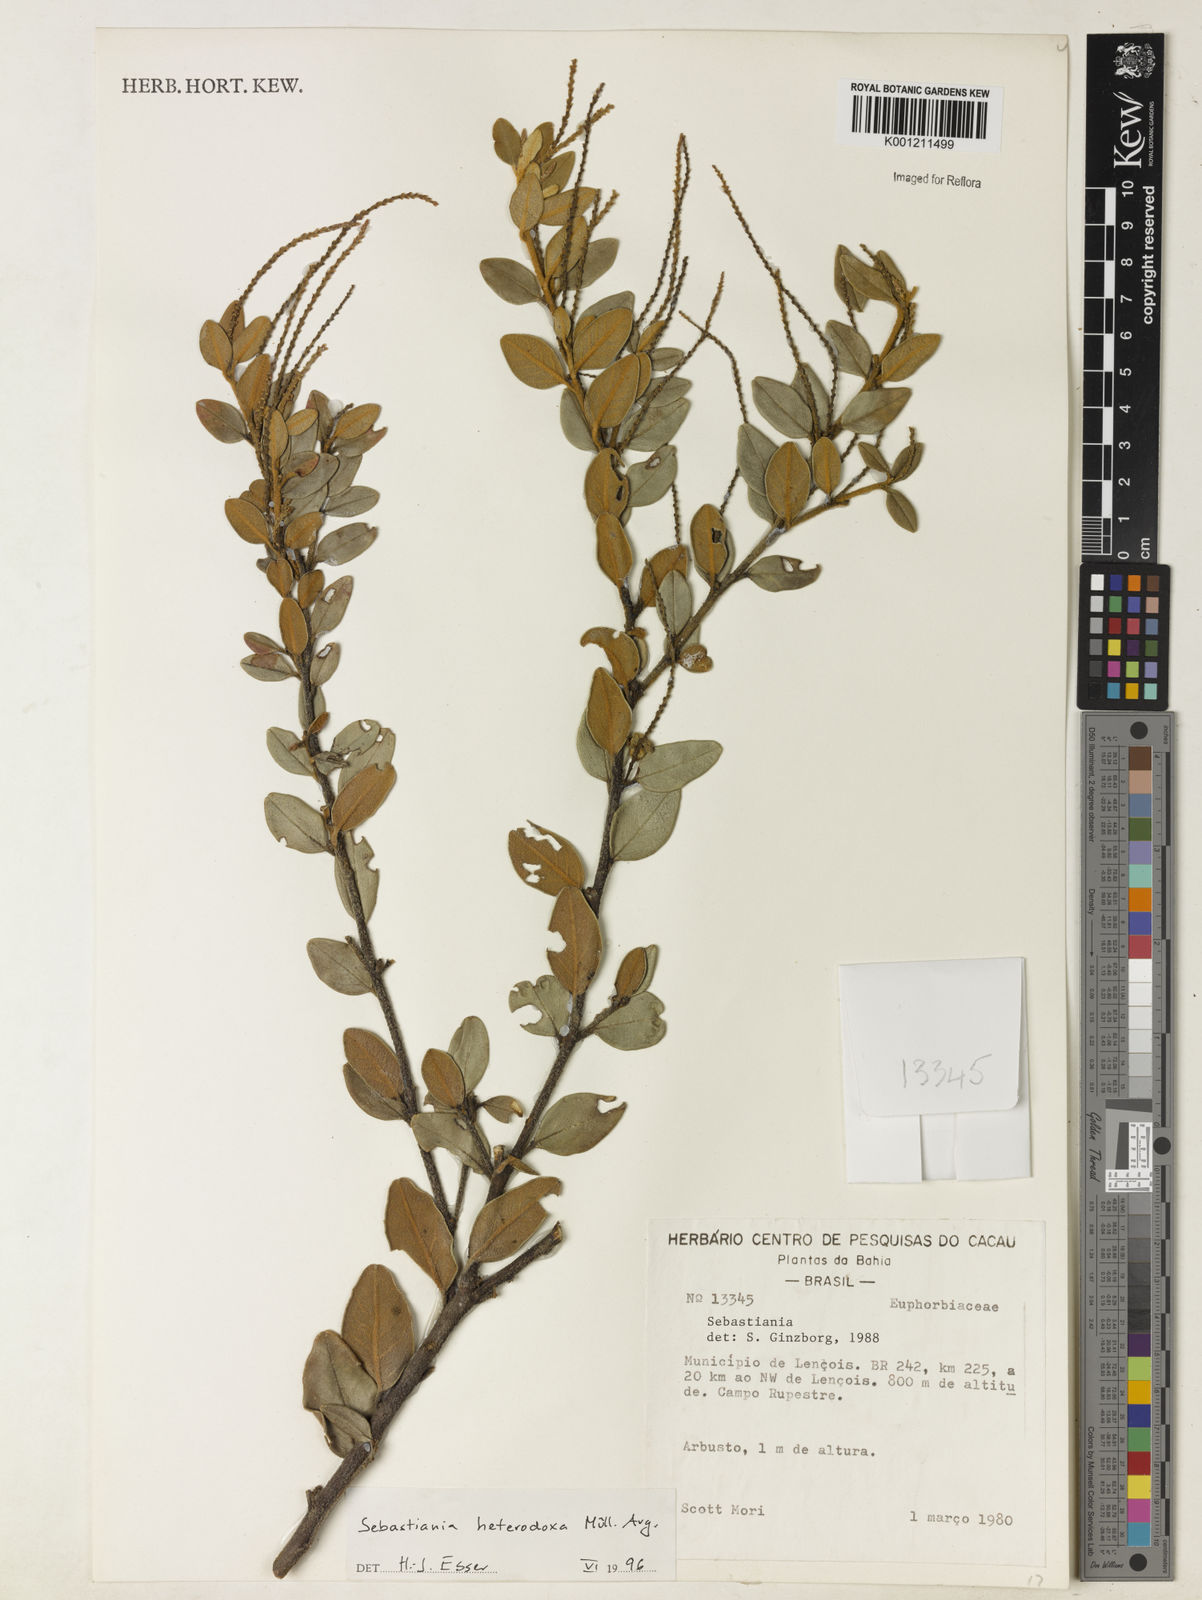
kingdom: Plantae
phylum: Tracheophyta
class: Magnoliopsida
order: Malpighiales
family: Euphorbiaceae
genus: Microstachys
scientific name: Microstachys
